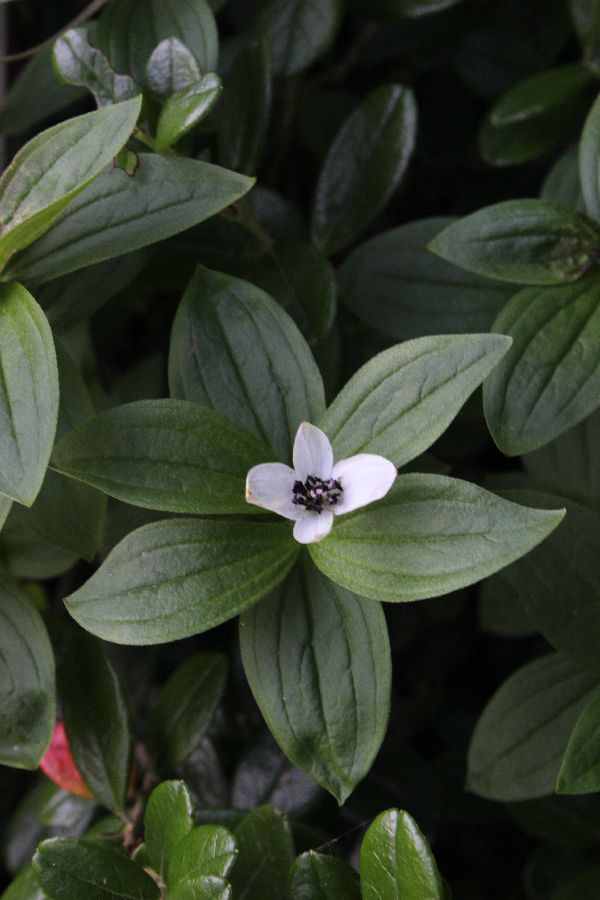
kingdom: Plantae
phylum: Tracheophyta
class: Magnoliopsida
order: Cornales
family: Cornaceae
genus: Cornus
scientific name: Cornus suecica
